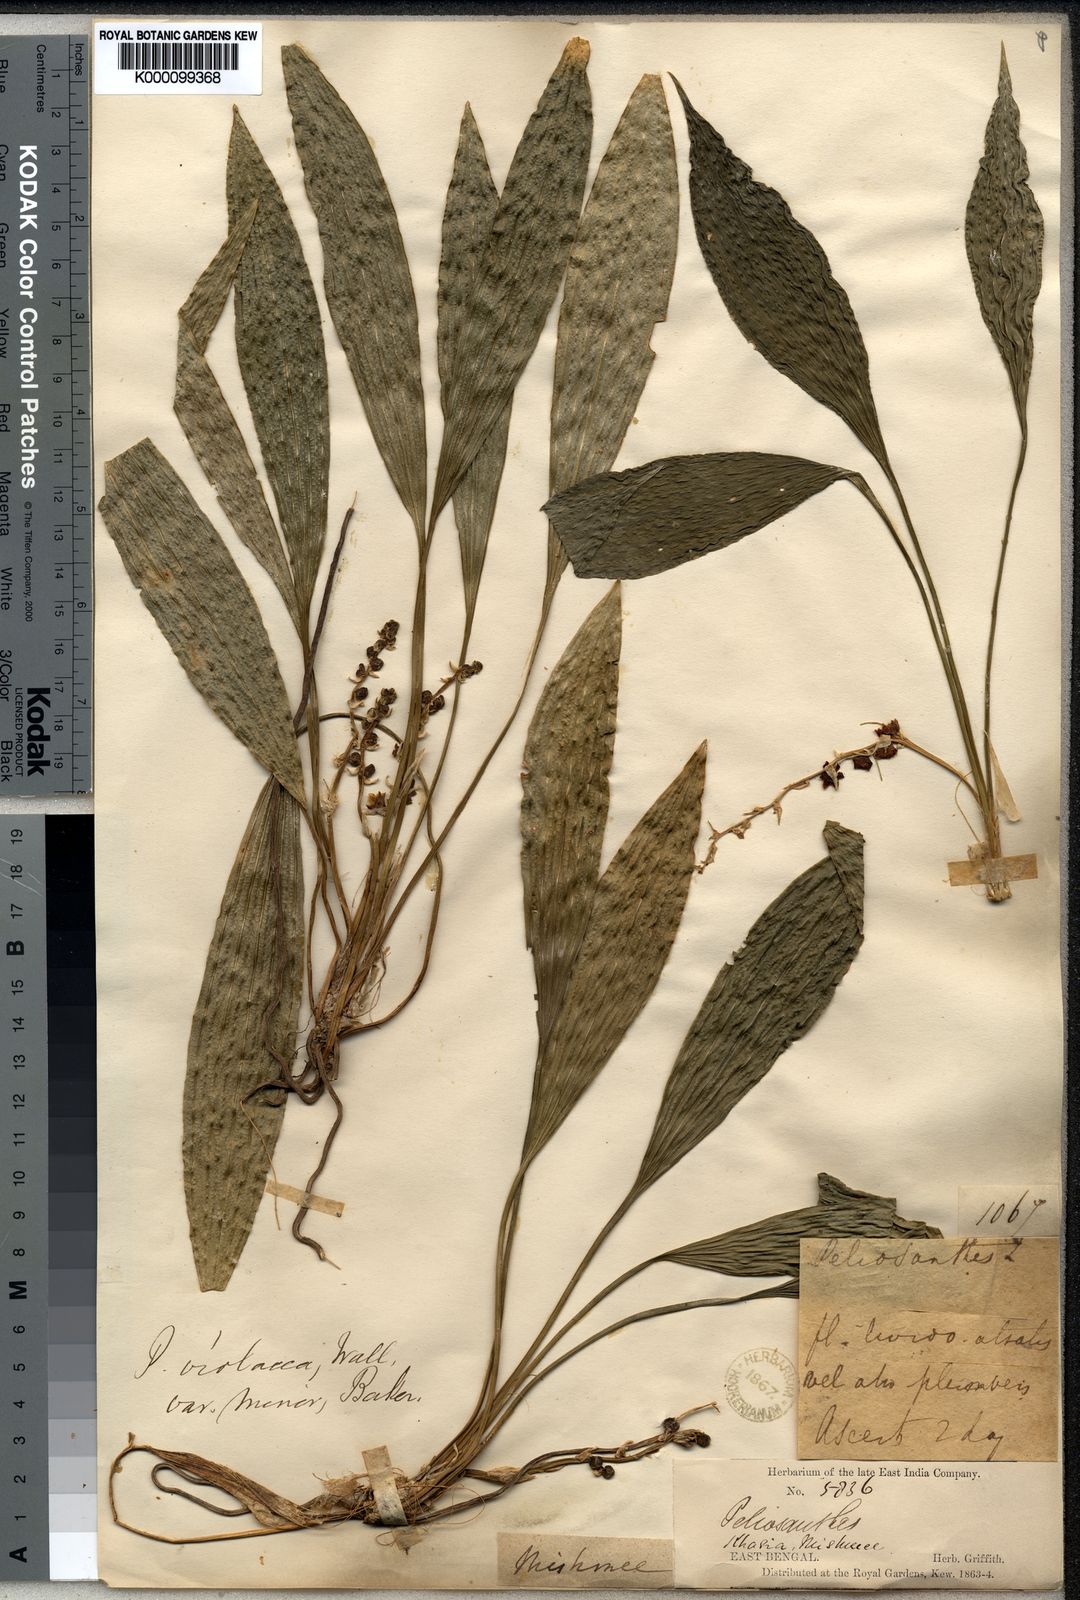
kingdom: Plantae
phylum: Tracheophyta
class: Liliopsida
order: Asparagales
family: Asparagaceae
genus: Peliosanthes
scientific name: Peliosanthes griffithii
